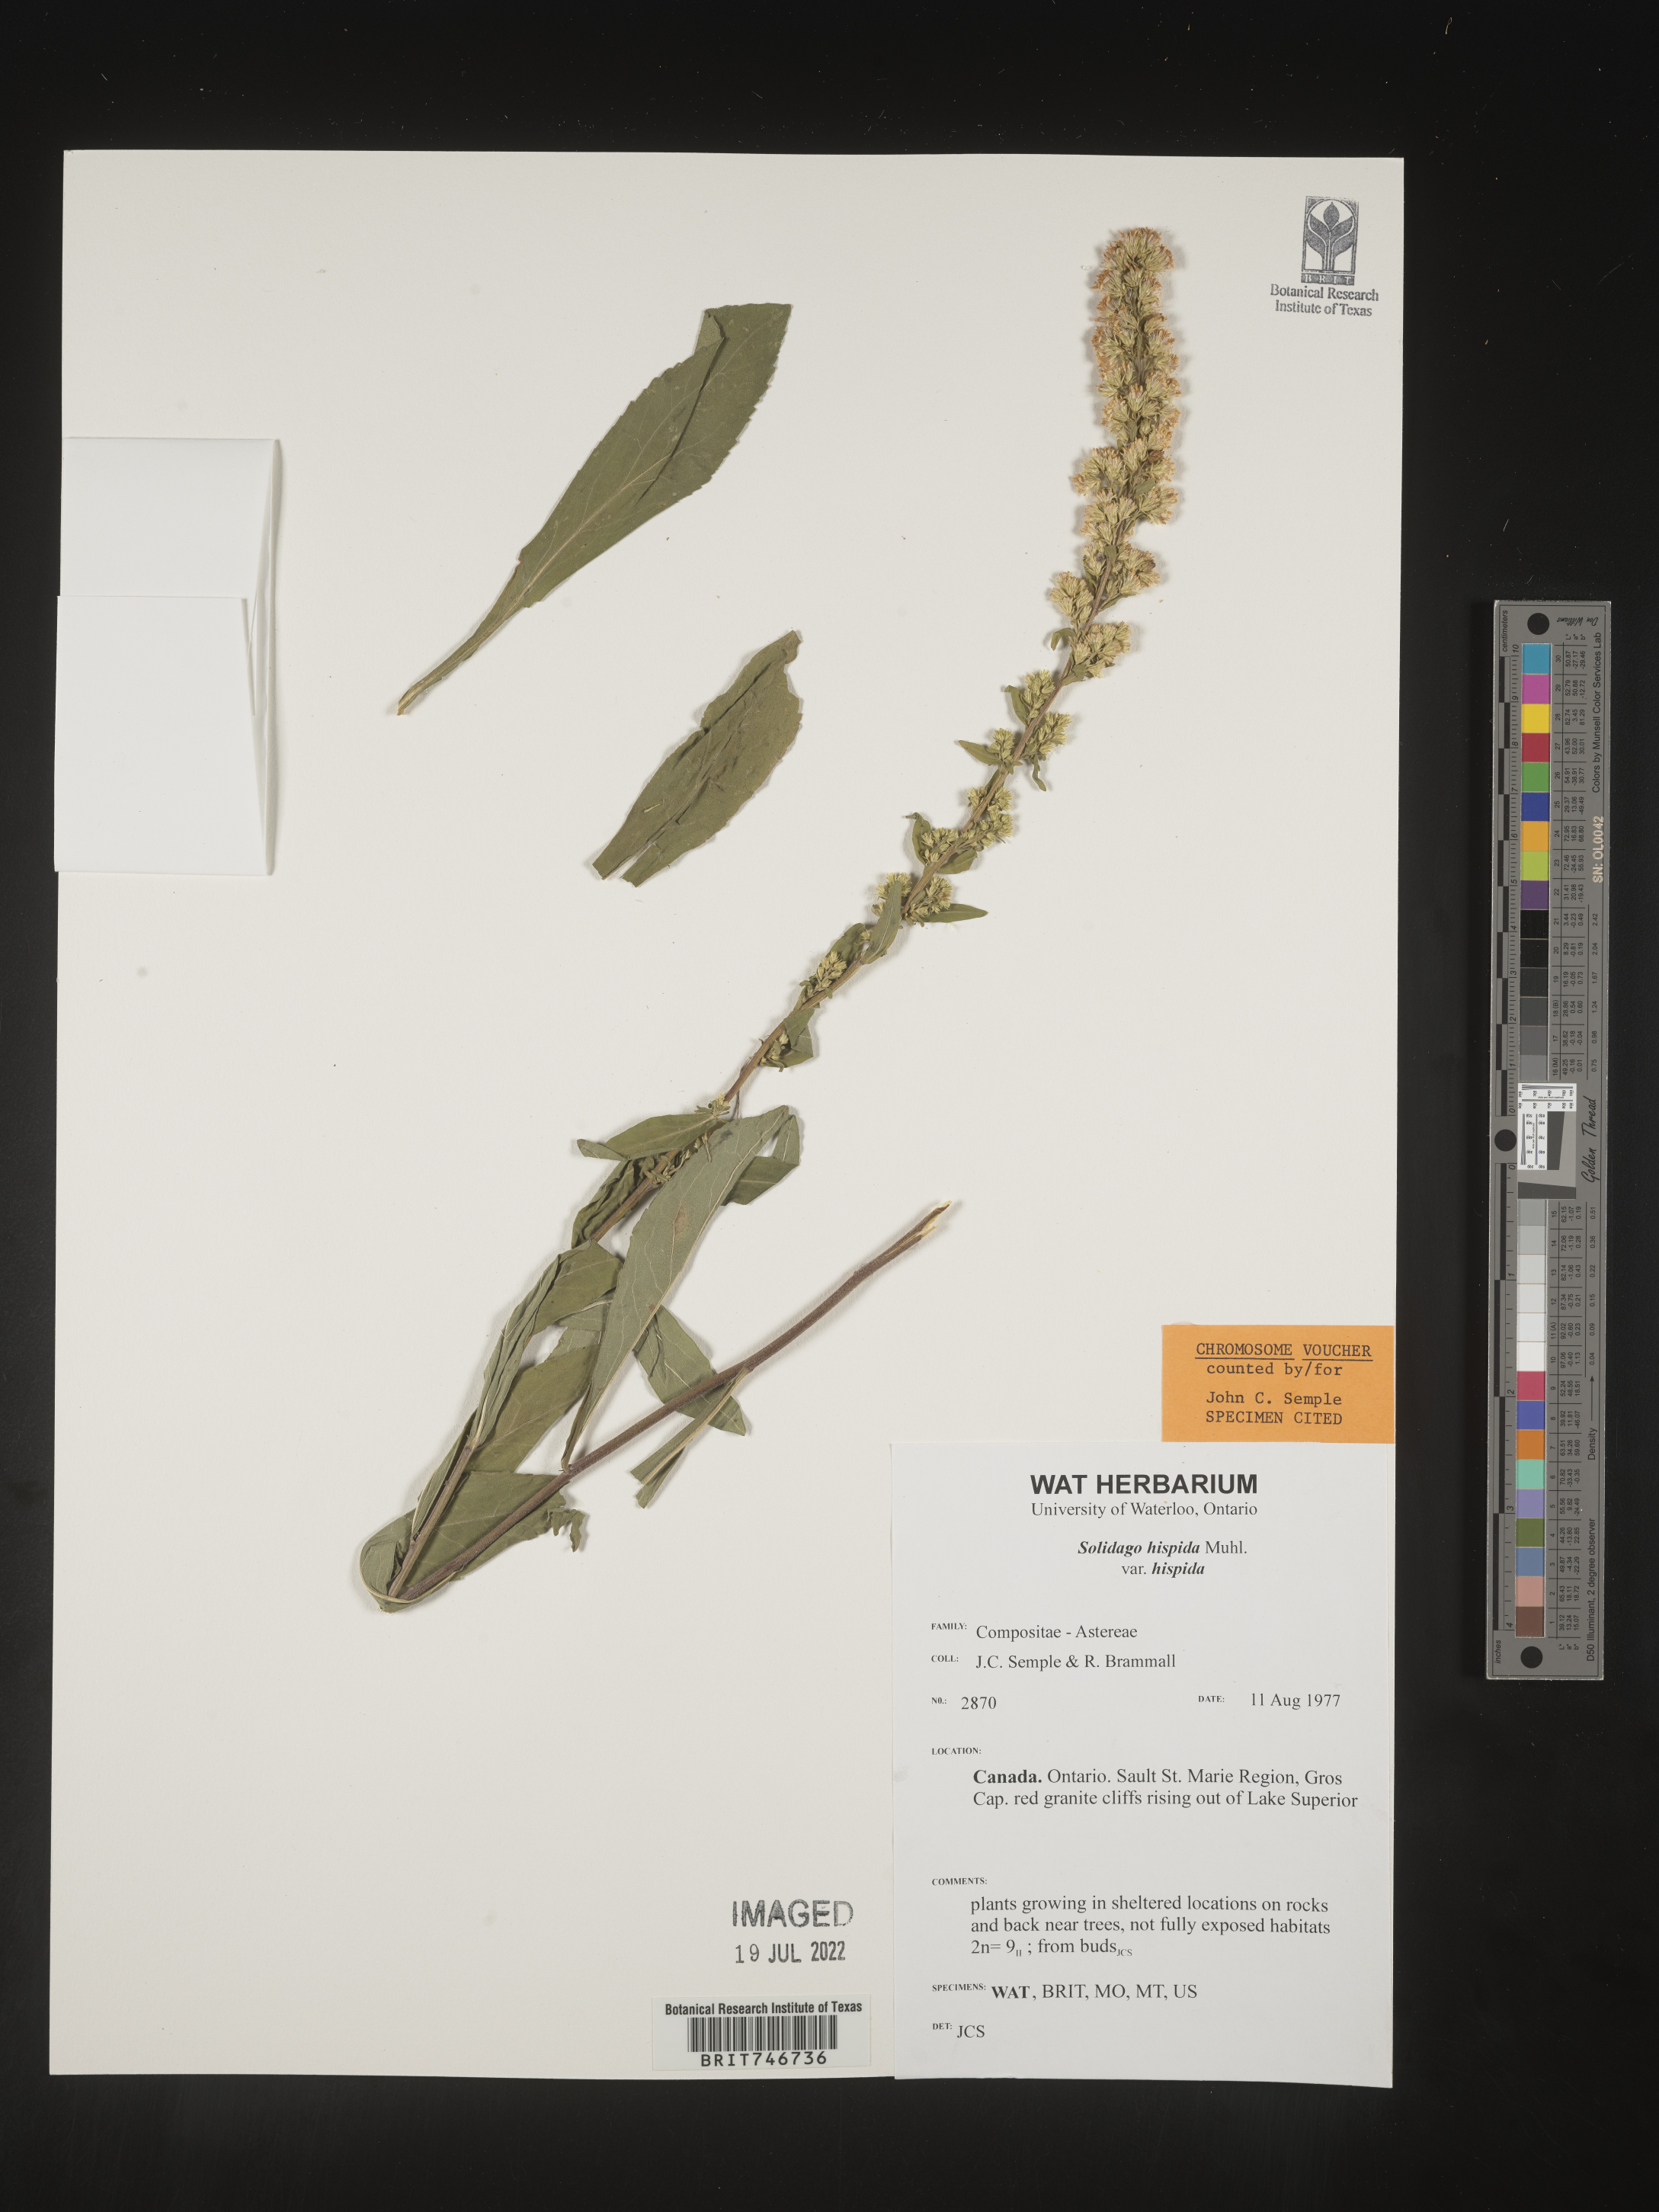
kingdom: Plantae
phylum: Tracheophyta
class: Magnoliopsida
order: Asterales
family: Asteraceae
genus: Solidago
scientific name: Solidago hispida
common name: Hairy goldenrod
